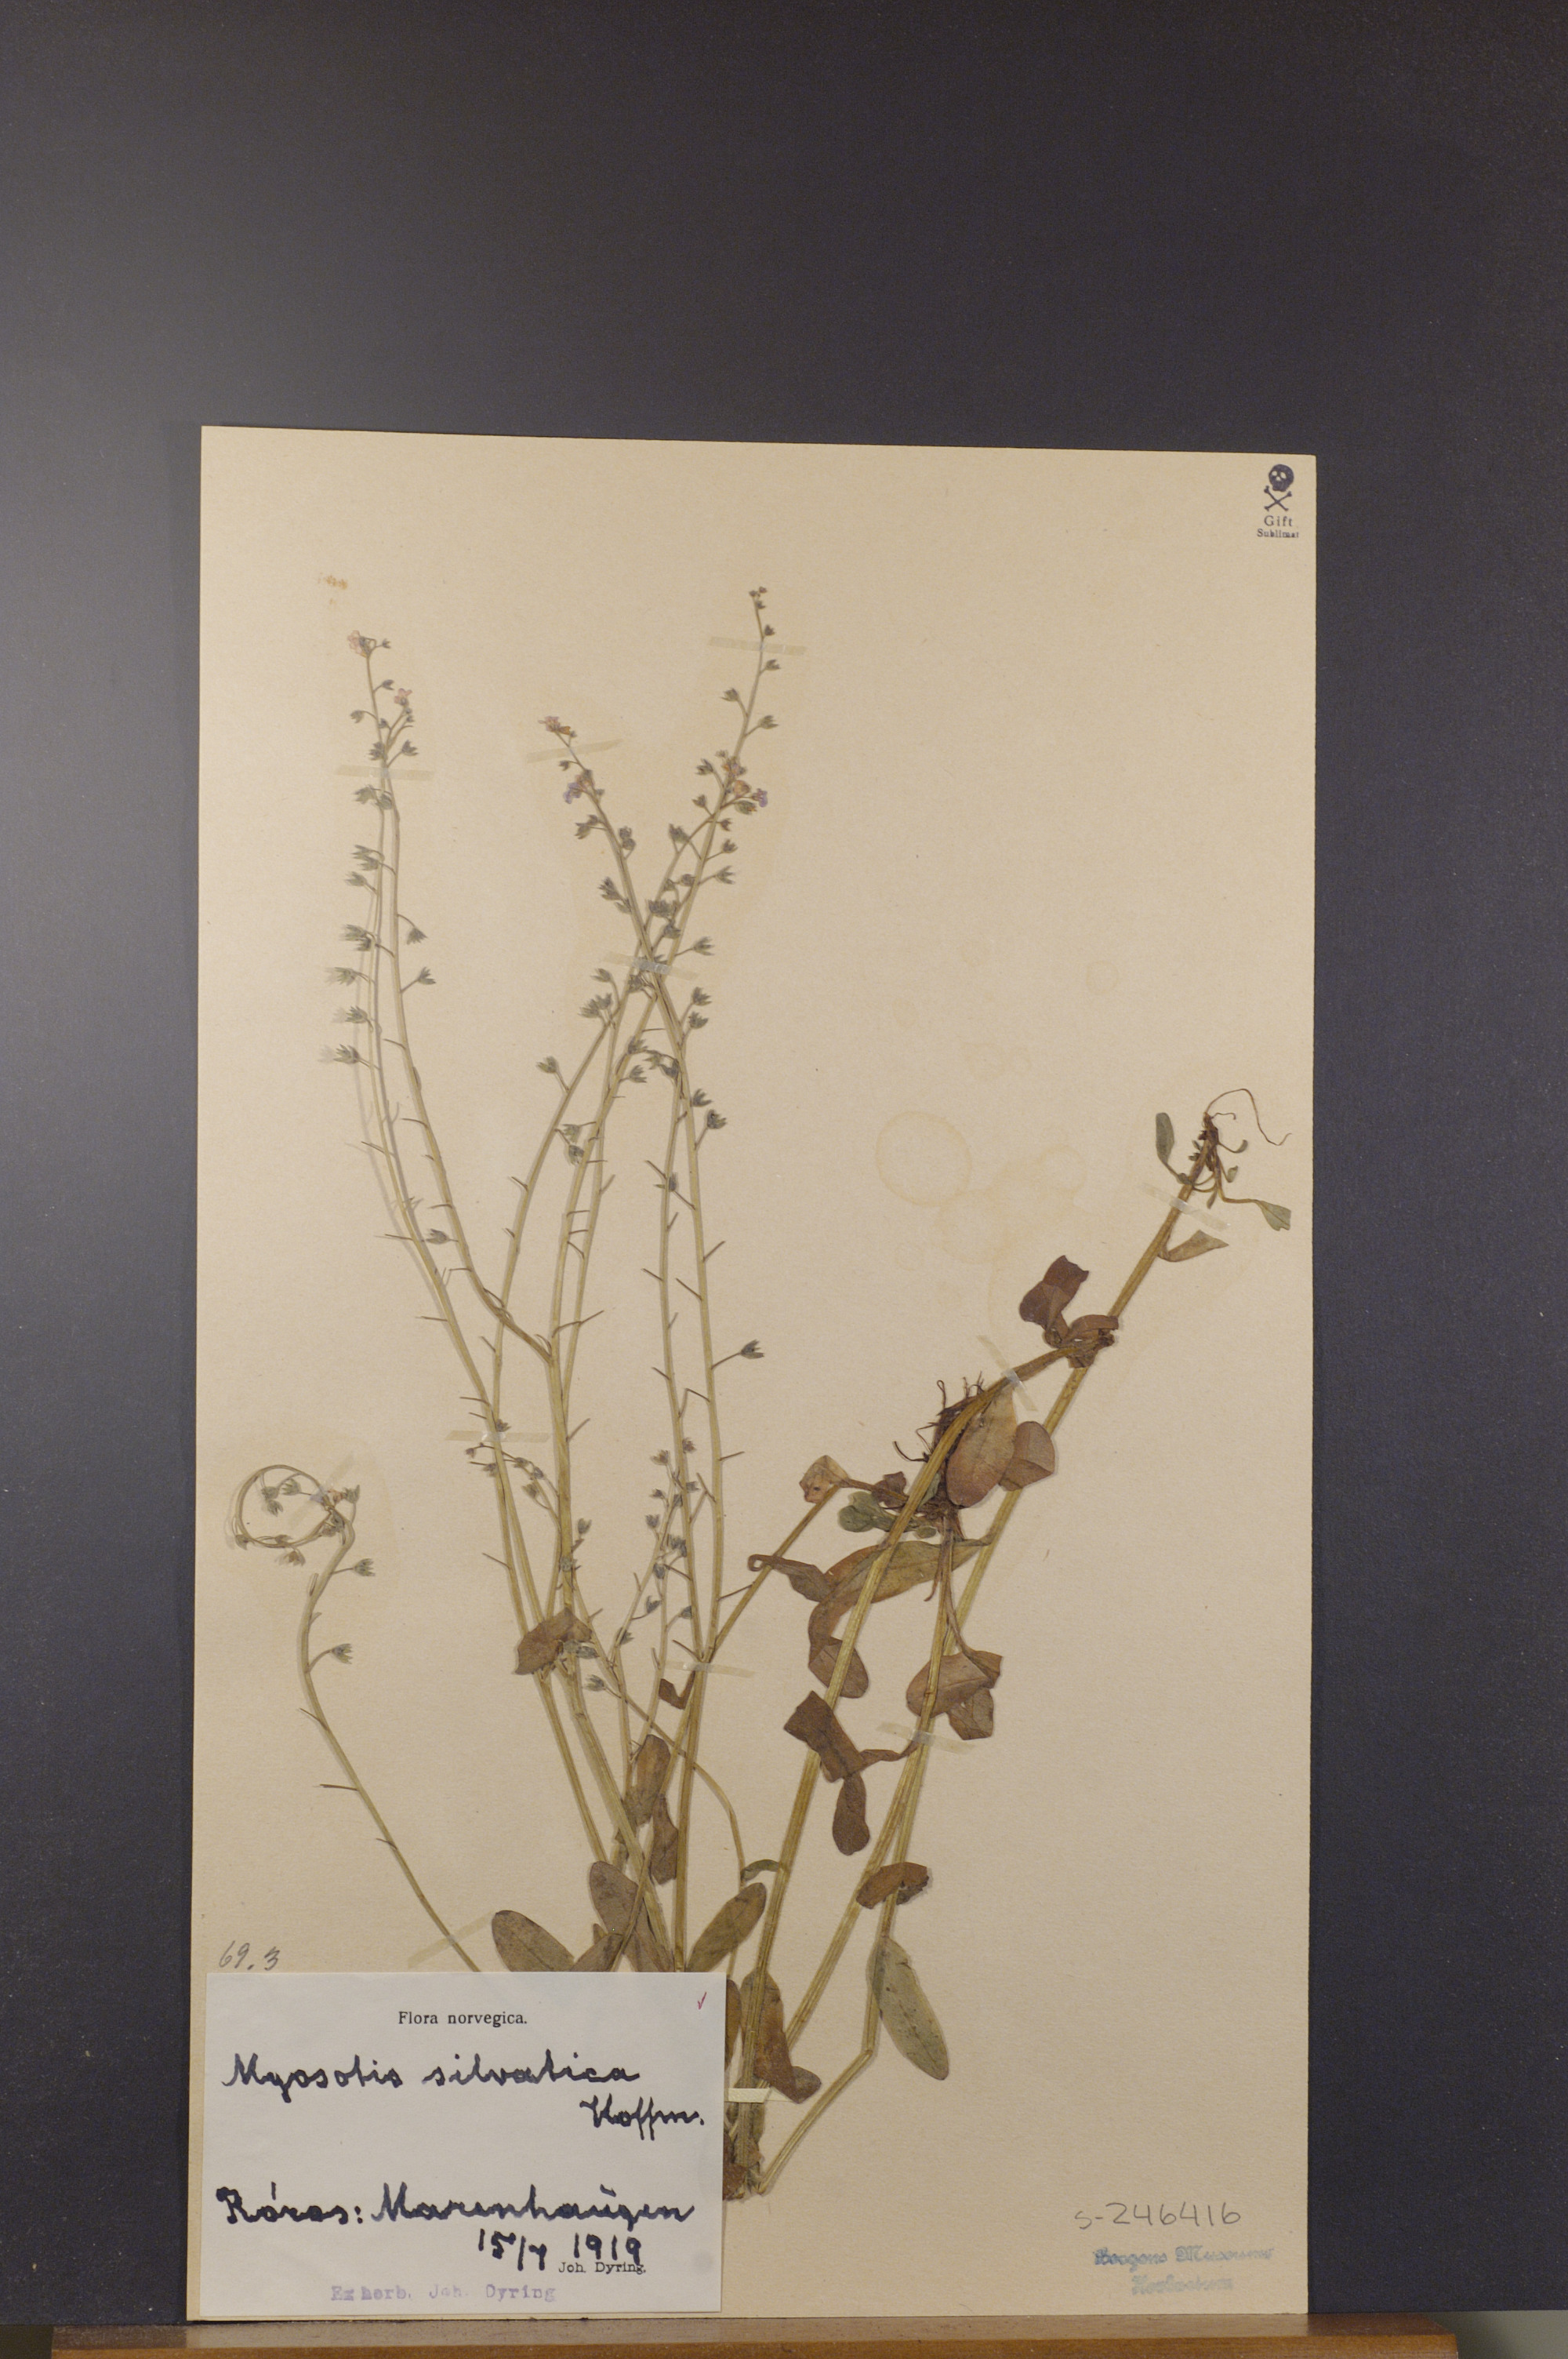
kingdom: Plantae
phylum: Tracheophyta
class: Magnoliopsida
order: Boraginales
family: Boraginaceae
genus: Myosotis
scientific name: Myosotis decumbens
